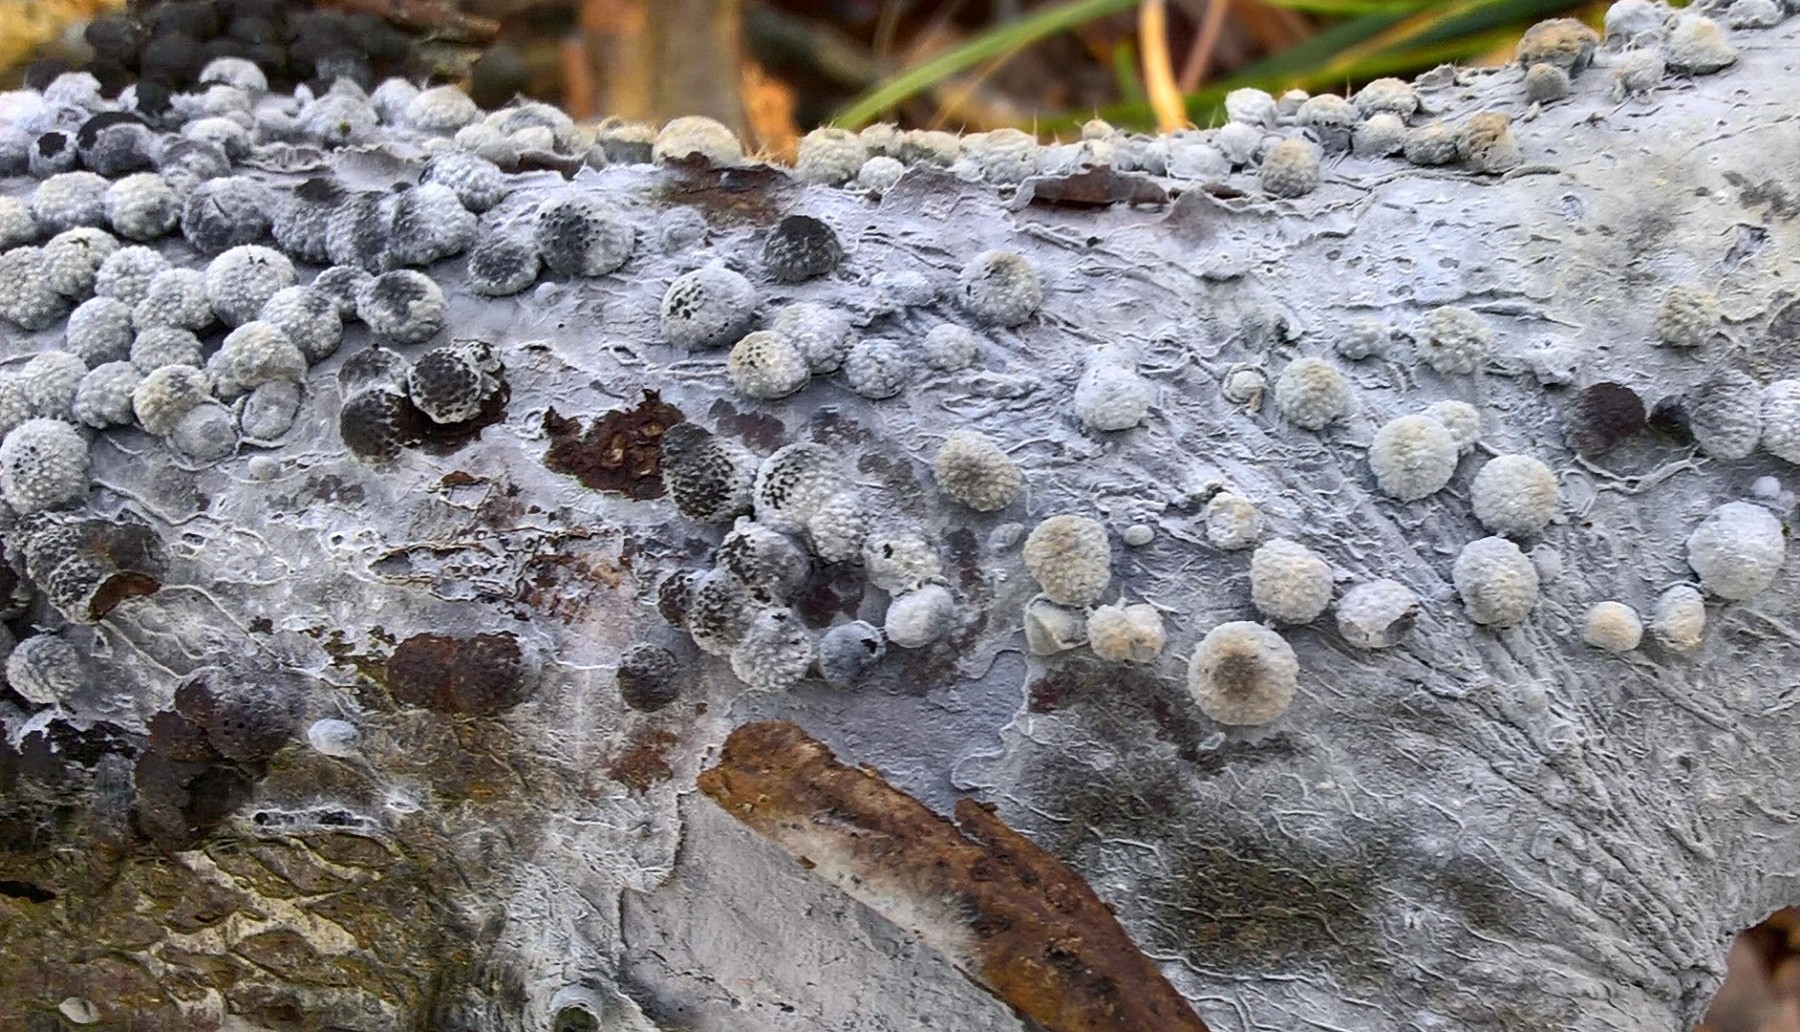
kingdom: Fungi
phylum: Basidiomycota
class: Agaricomycetes
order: Corticiales
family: Corticiaceae
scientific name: Corticiaceae
